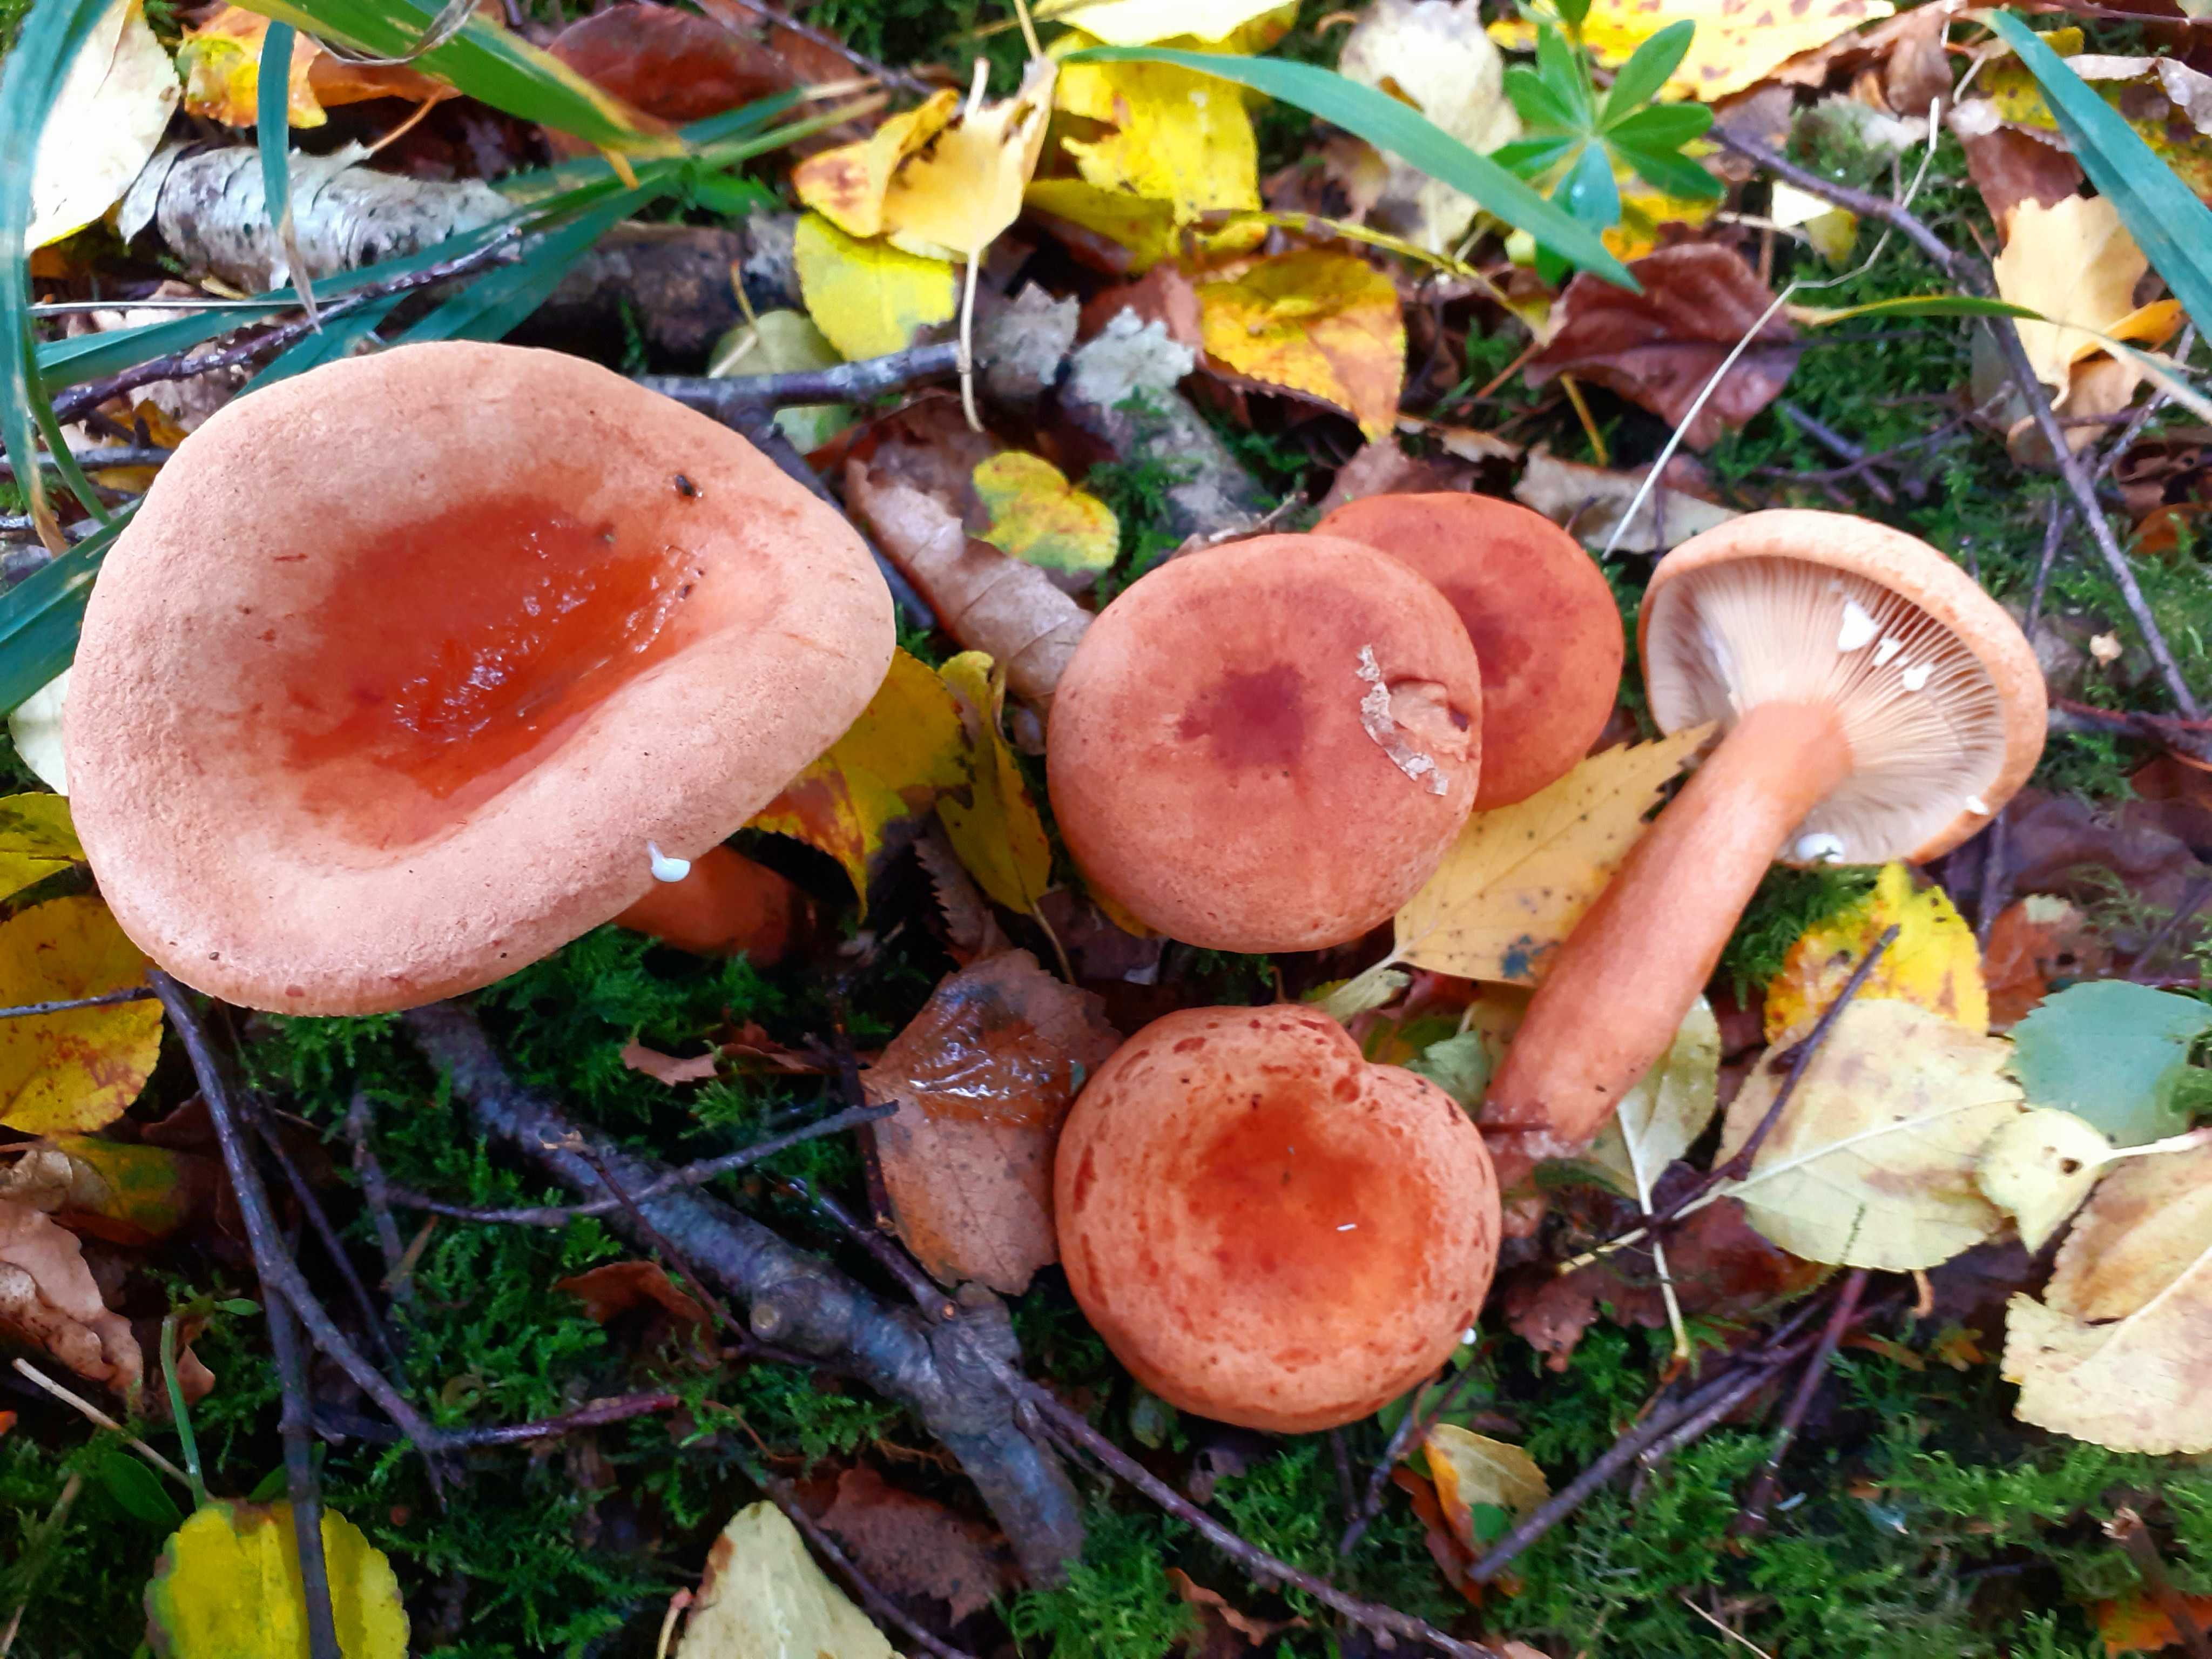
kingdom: Fungi
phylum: Basidiomycota
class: Agaricomycetes
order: Russulales
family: Russulaceae
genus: Lactarius
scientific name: Lactarius tabidus
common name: rynket mælkehat
